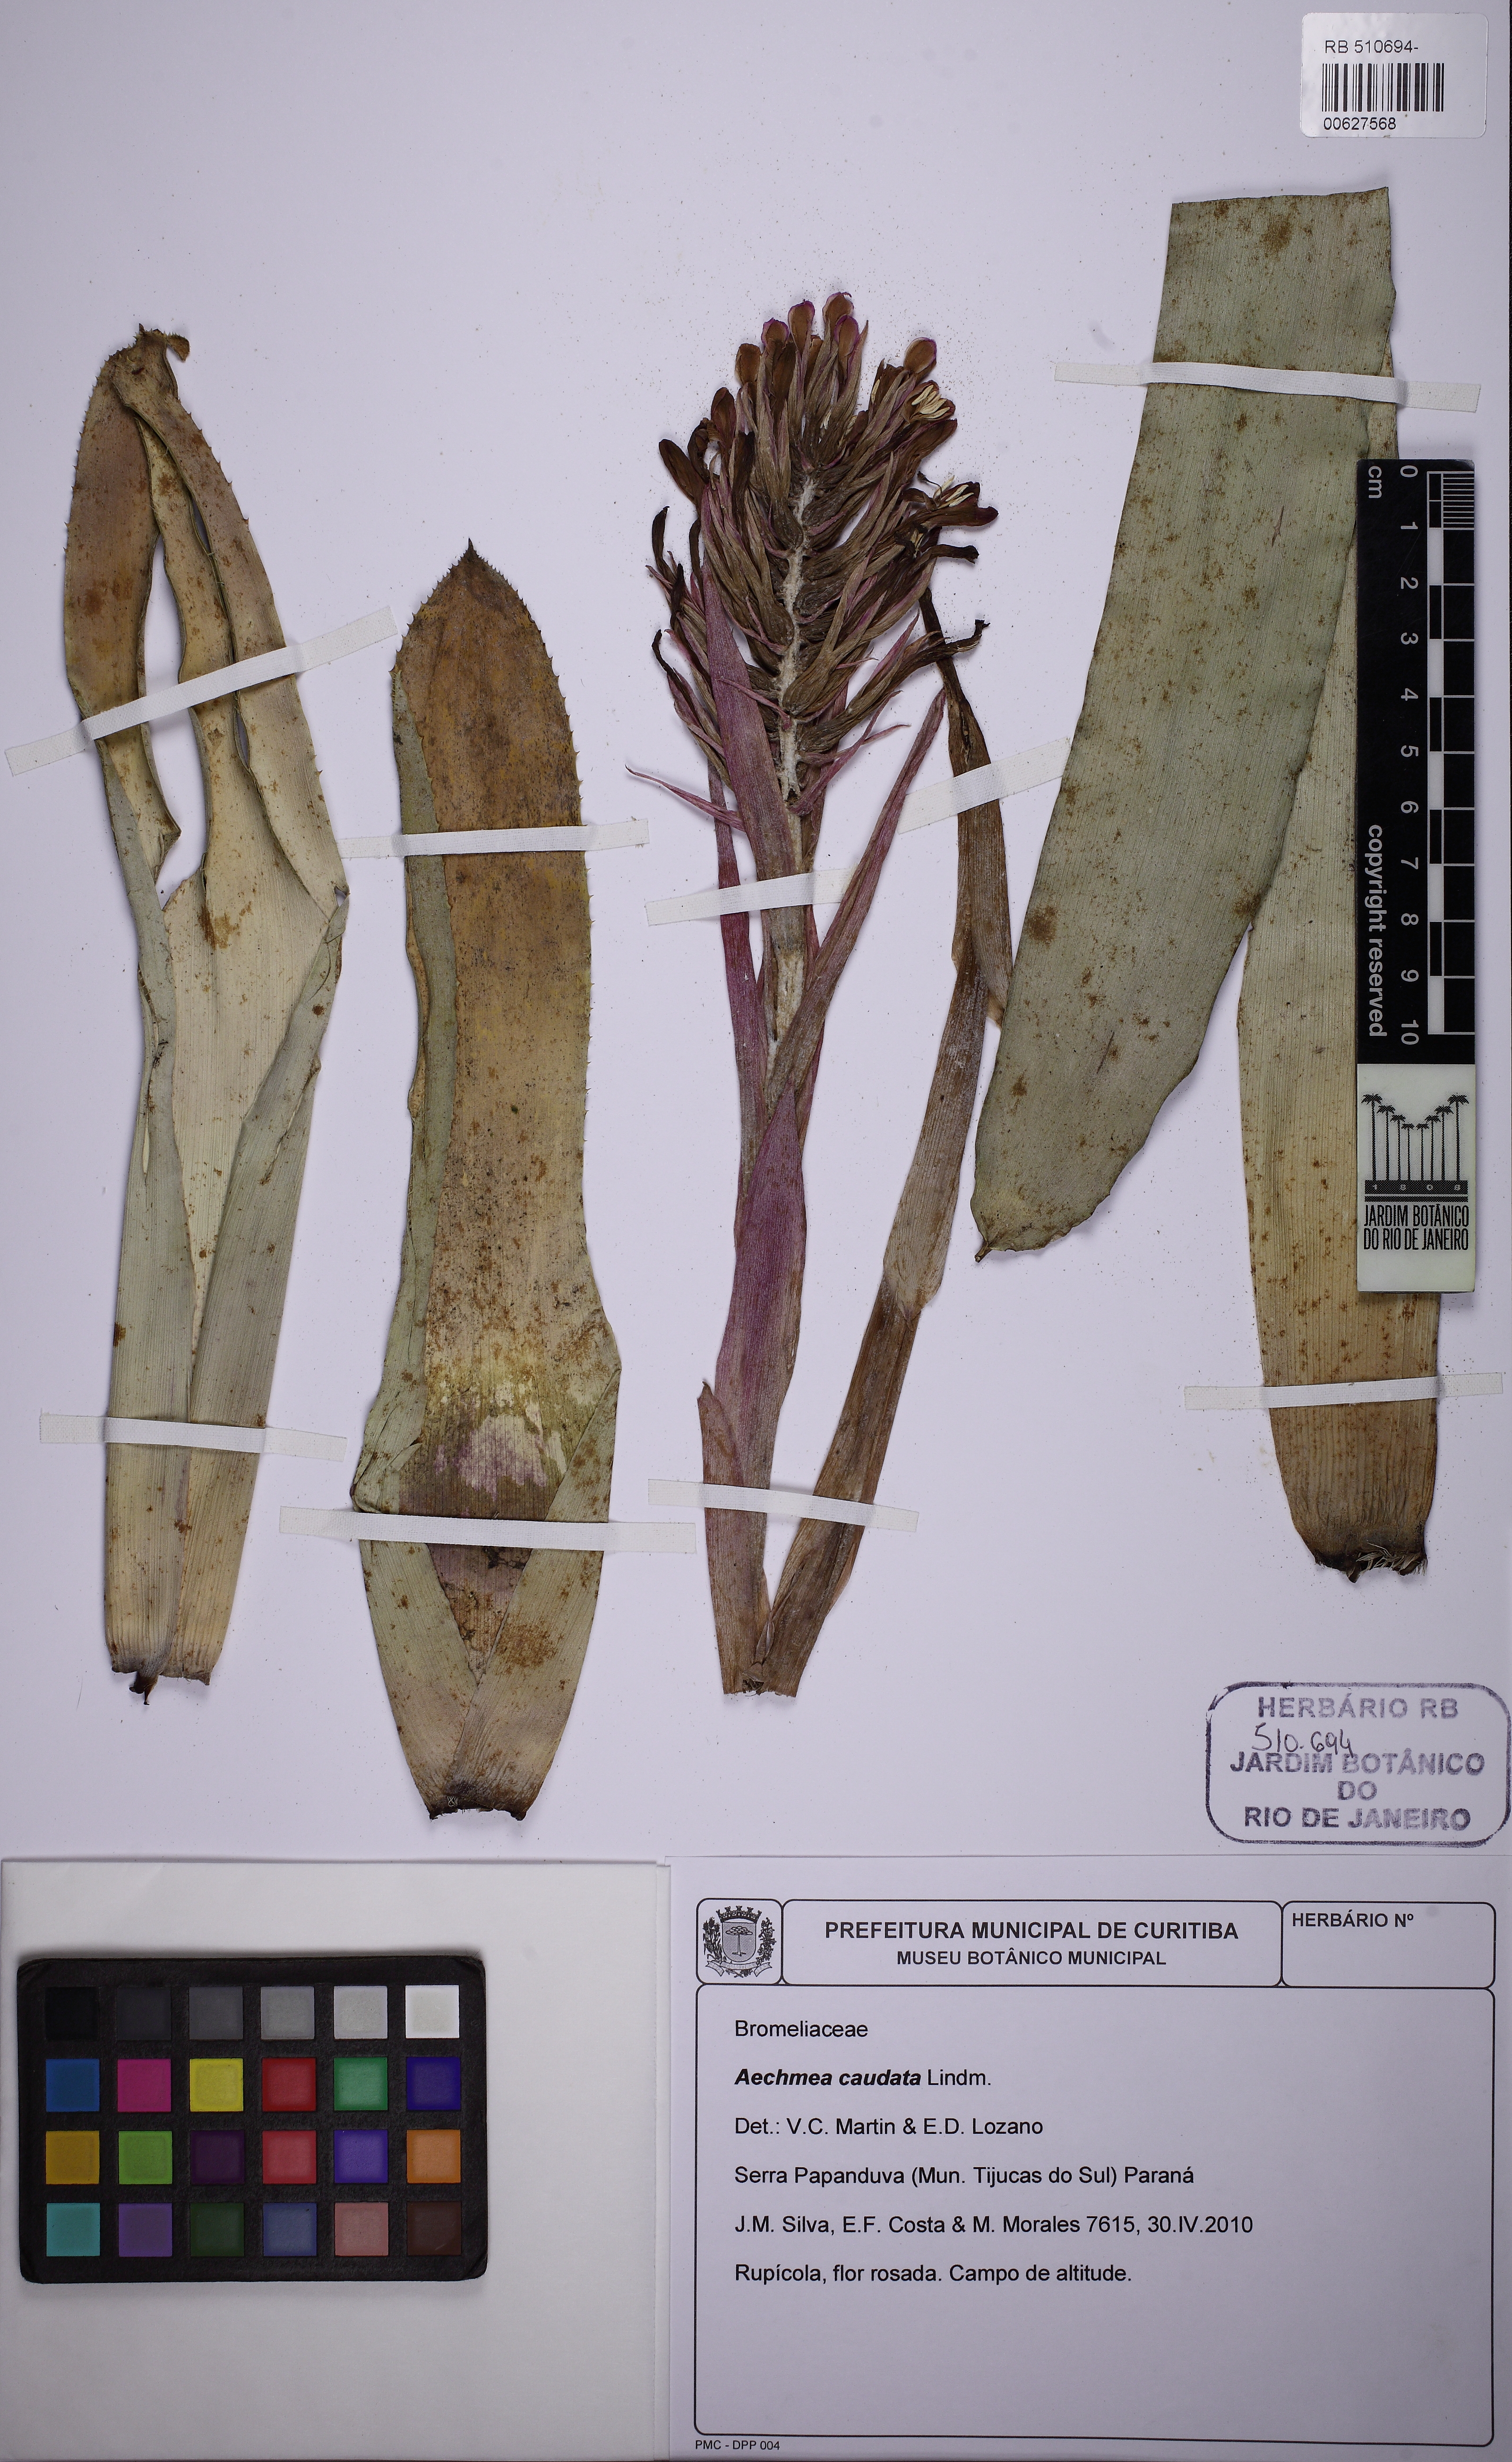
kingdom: Plantae
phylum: Tracheophyta
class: Liliopsida
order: Poales
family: Bromeliaceae
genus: Billbergia
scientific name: Billbergia pyramidalis
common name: Foolproofplant
